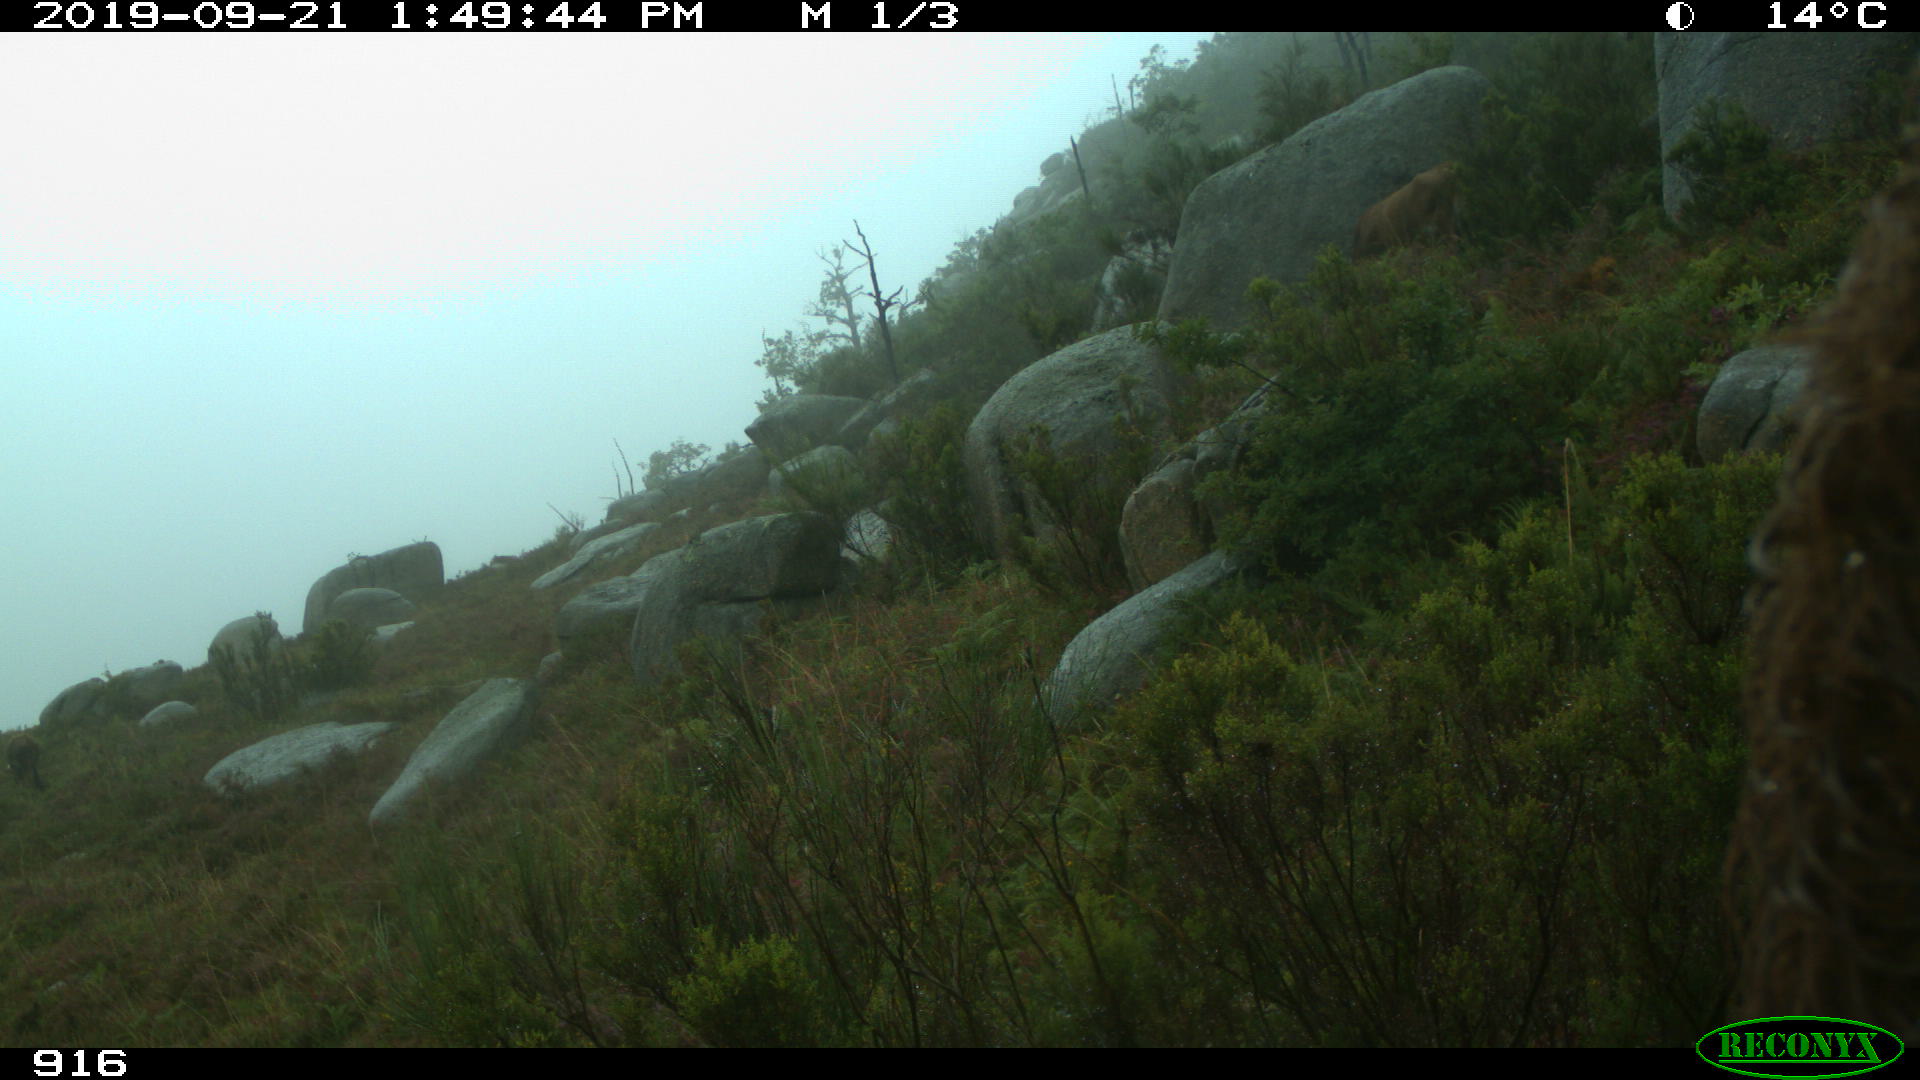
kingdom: Animalia
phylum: Chordata
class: Mammalia
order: Artiodactyla
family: Bovidae
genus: Bos
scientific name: Bos taurus
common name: Domesticated cattle
